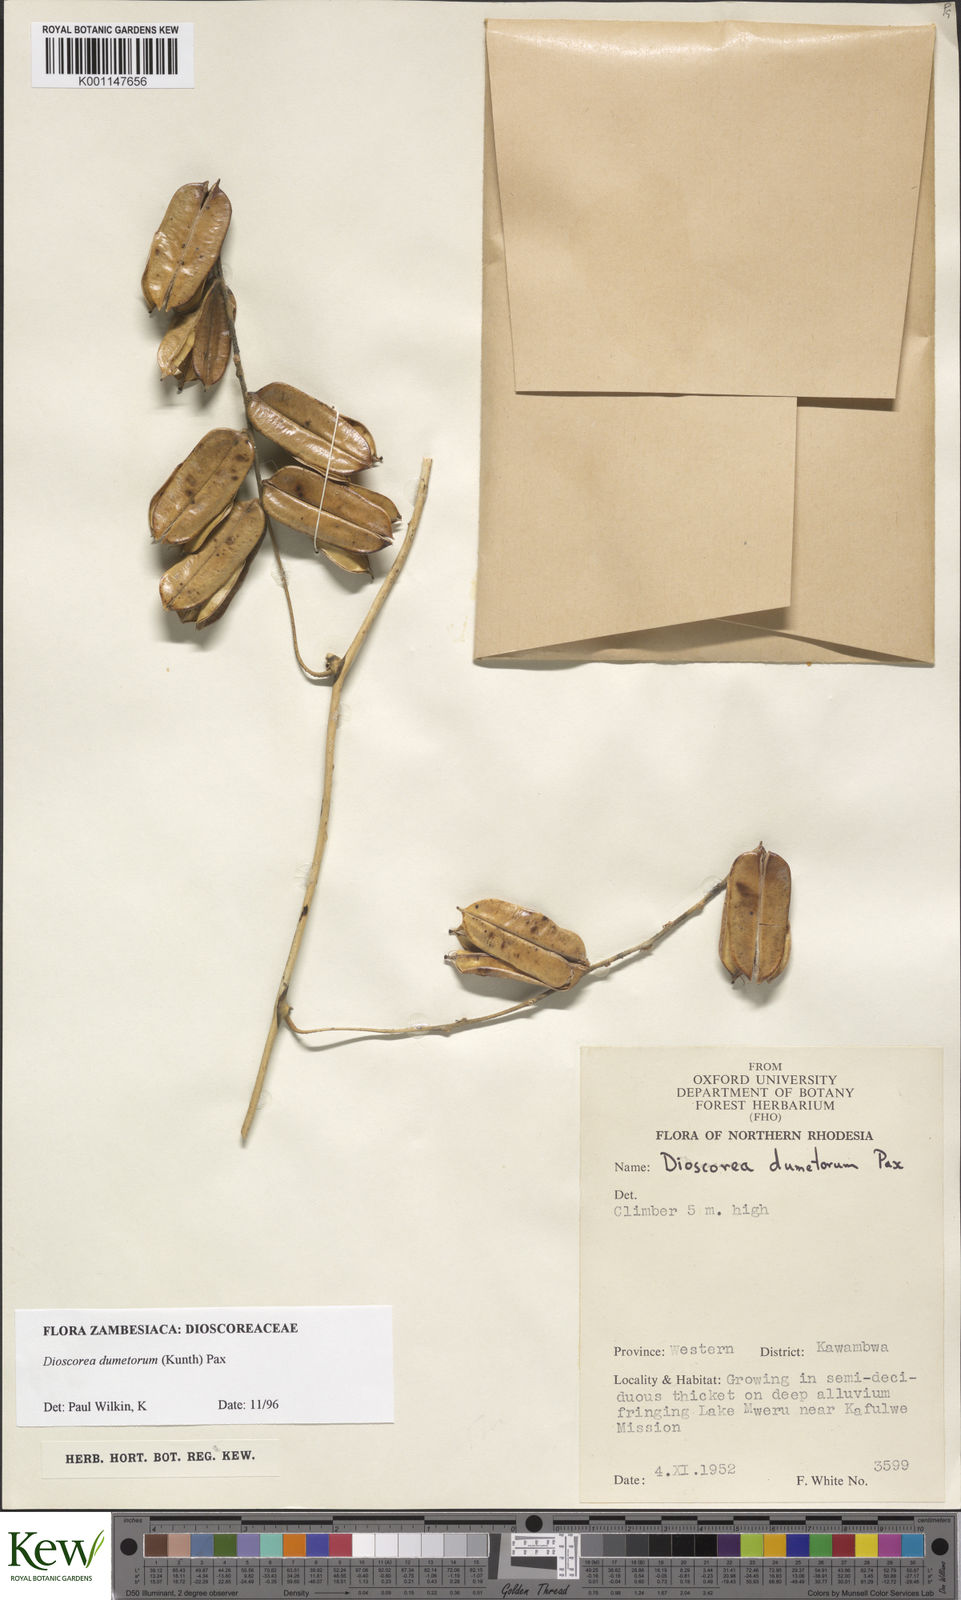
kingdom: Plantae
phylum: Tracheophyta
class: Liliopsida
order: Dioscoreales
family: Dioscoreaceae
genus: Dioscorea
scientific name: Dioscorea dumetorum
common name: African bitter yam
